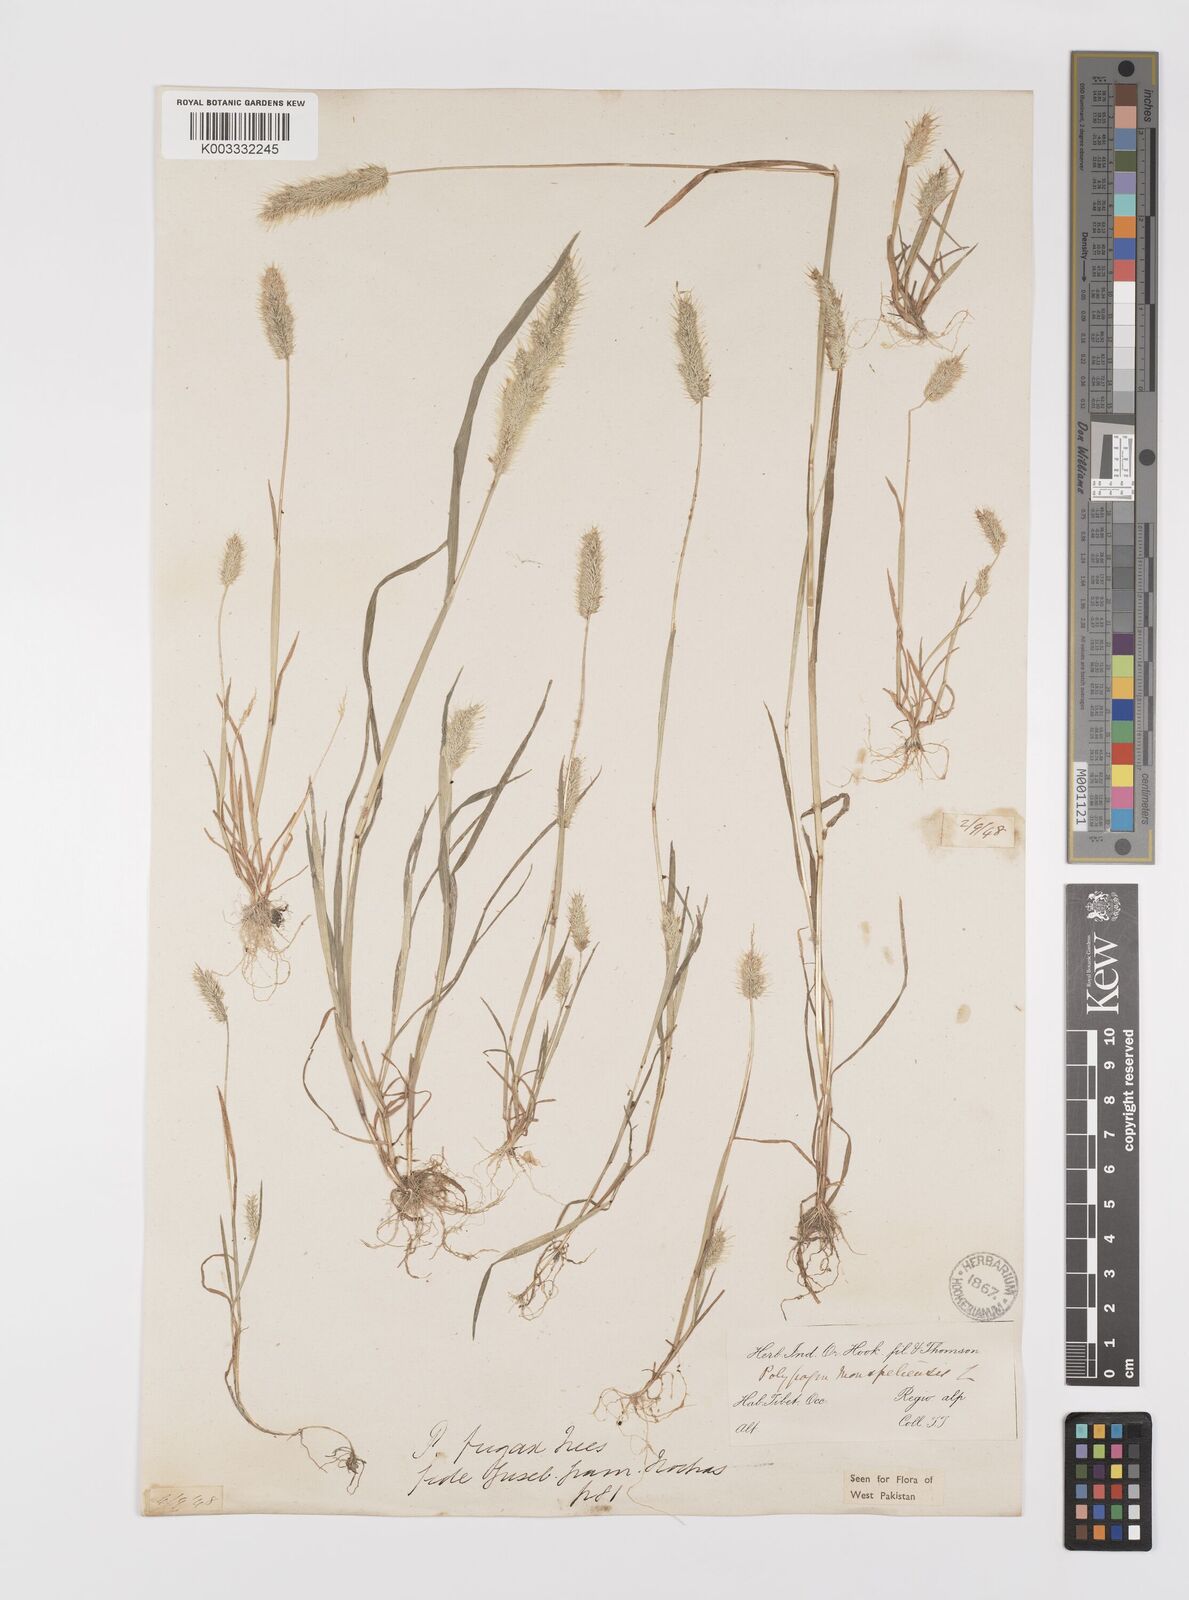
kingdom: Plantae
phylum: Tracheophyta
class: Liliopsida
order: Poales
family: Poaceae
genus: Polypogon
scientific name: Polypogon monspeliensis
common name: Annual rabbitsfoot grass
